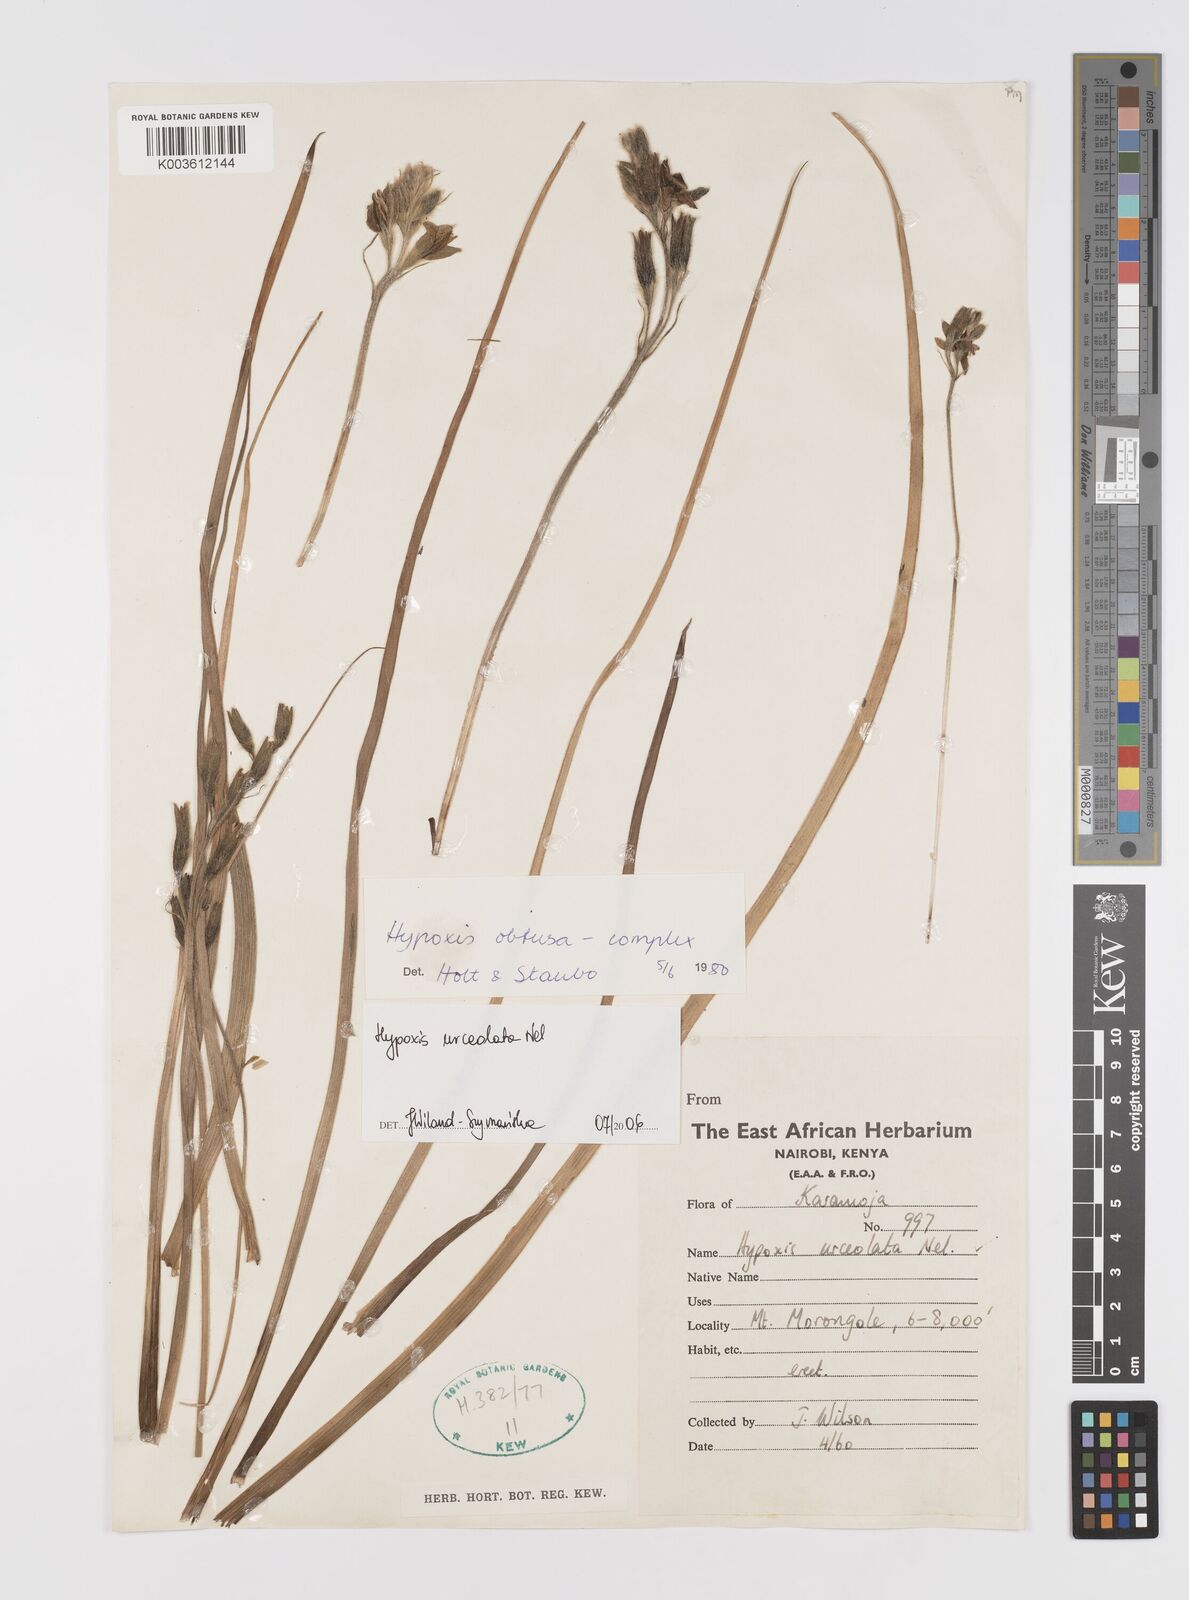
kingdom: Plantae
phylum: Tracheophyta
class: Liliopsida
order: Asparagales
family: Hypoxidaceae
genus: Hypoxis
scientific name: Hypoxis urceolata
